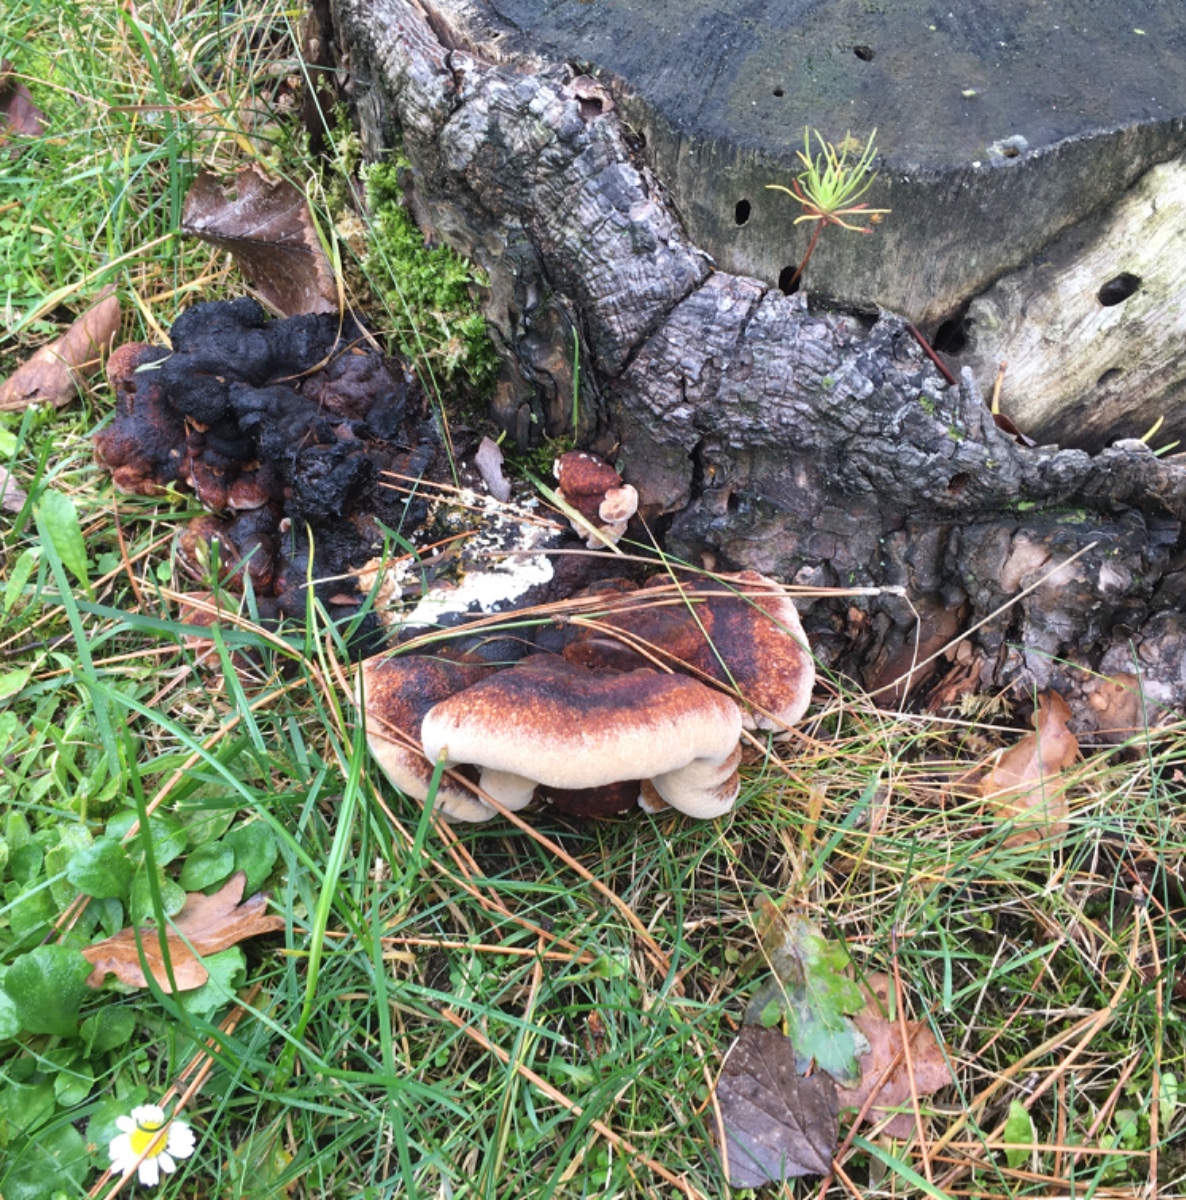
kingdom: Fungi
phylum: Basidiomycota
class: Agaricomycetes
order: Polyporales
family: Ischnodermataceae
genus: Ischnoderma
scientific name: Ischnoderma benzoinum
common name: gran-tjæreporesvamp
